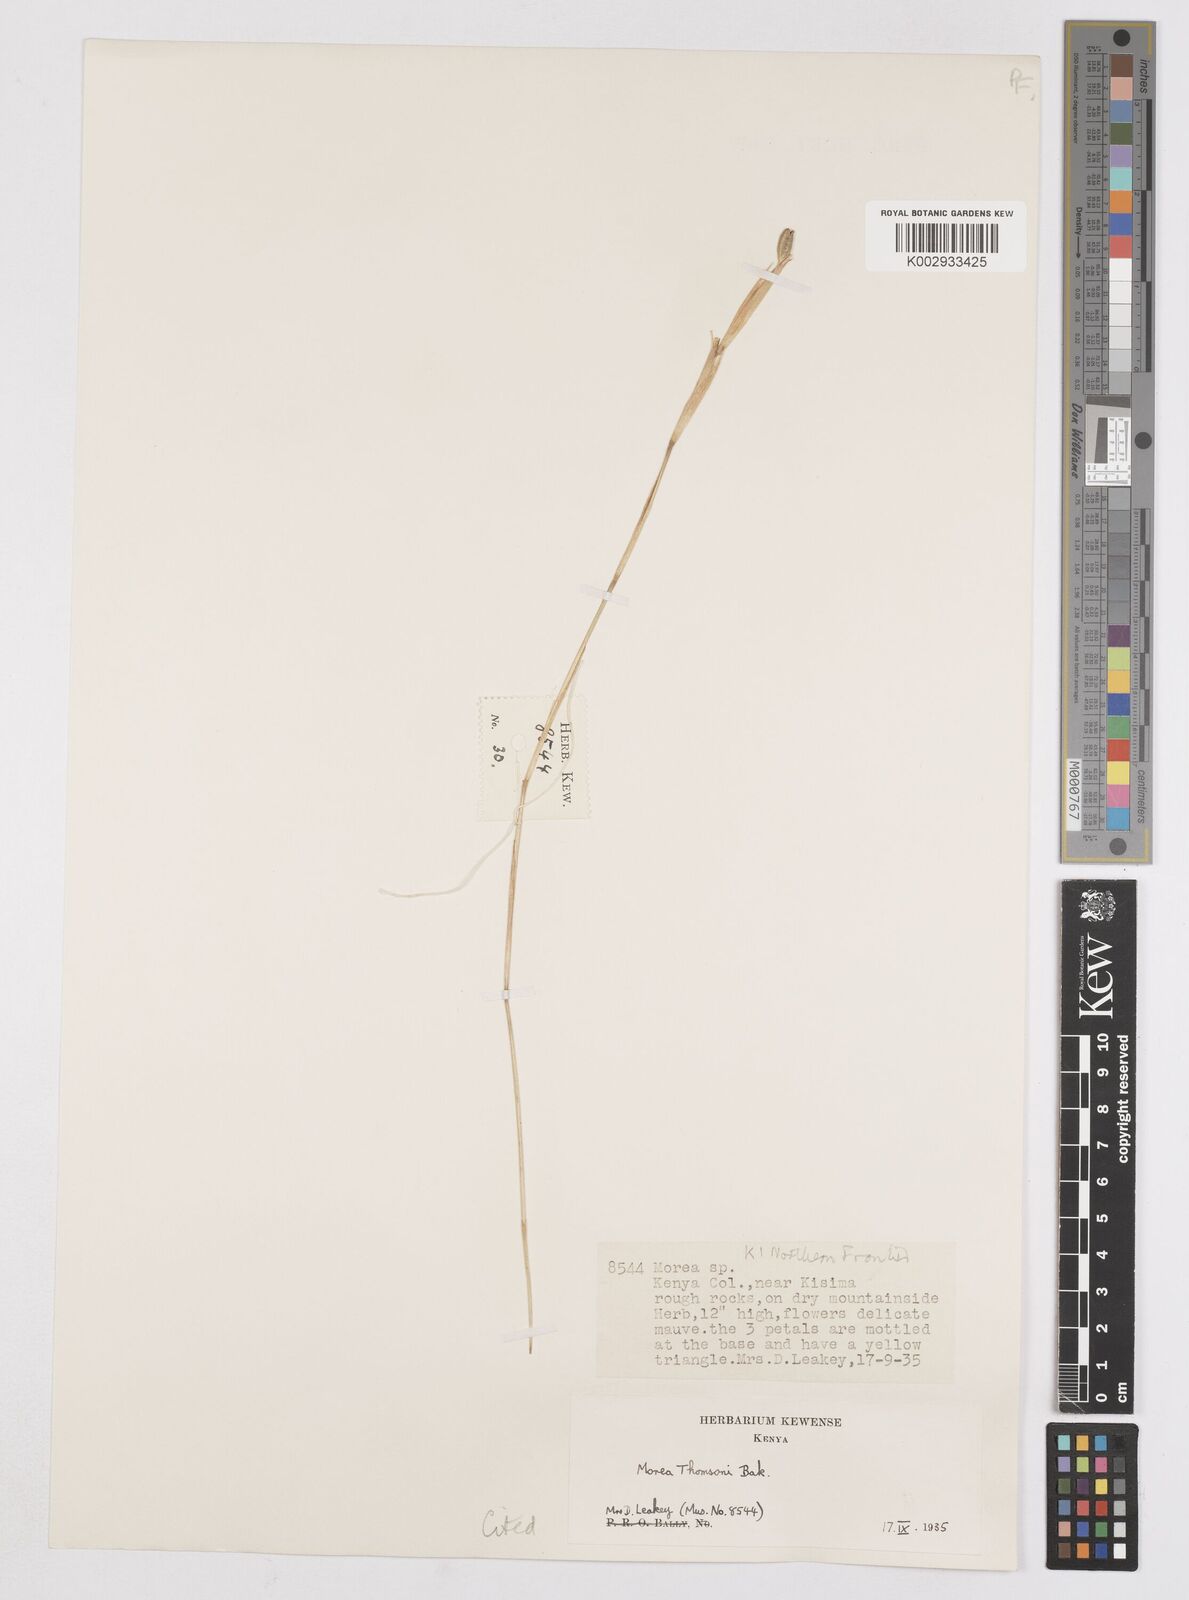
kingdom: Plantae
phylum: Tracheophyta
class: Liliopsida
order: Asparagales
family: Iridaceae
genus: Moraea
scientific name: Moraea stricta
